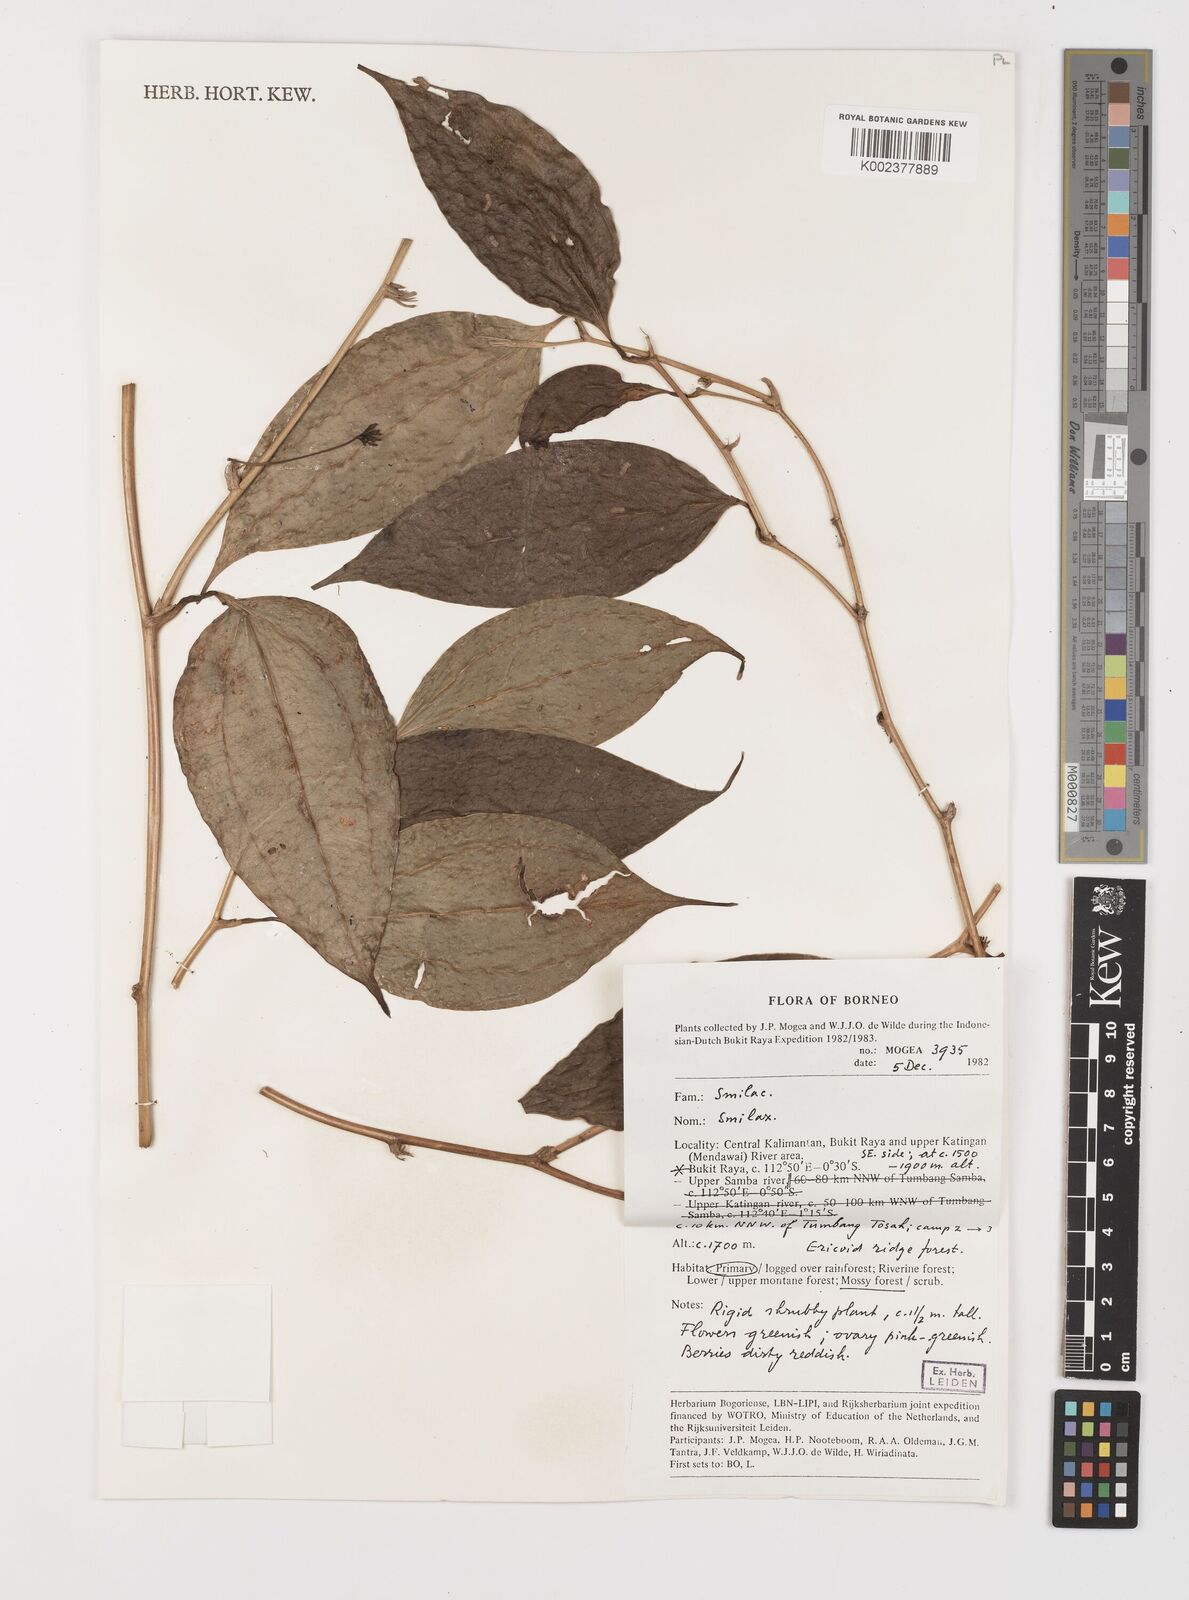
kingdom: Plantae
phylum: Tracheophyta
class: Liliopsida
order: Liliales
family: Smilacaceae
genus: Smilax
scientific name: Smilax
